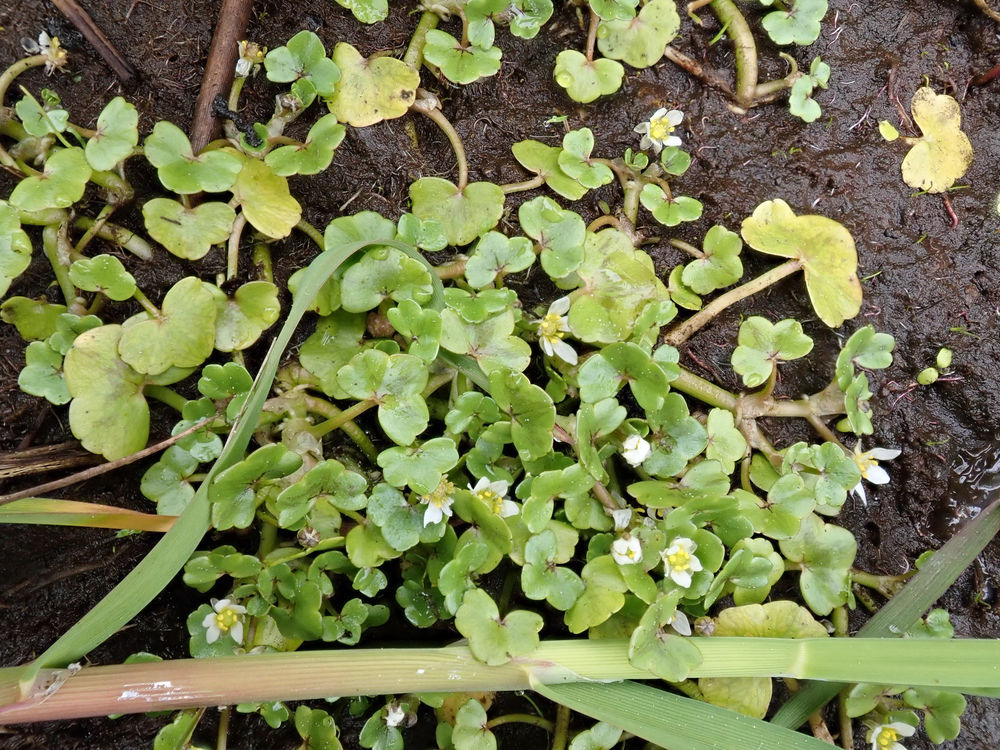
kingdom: Plantae
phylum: Tracheophyta
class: Magnoliopsida
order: Ranunculales
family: Ranunculaceae
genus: Ranunculus
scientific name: Ranunculus hederaceus
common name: Vedbend-vandranunkel
